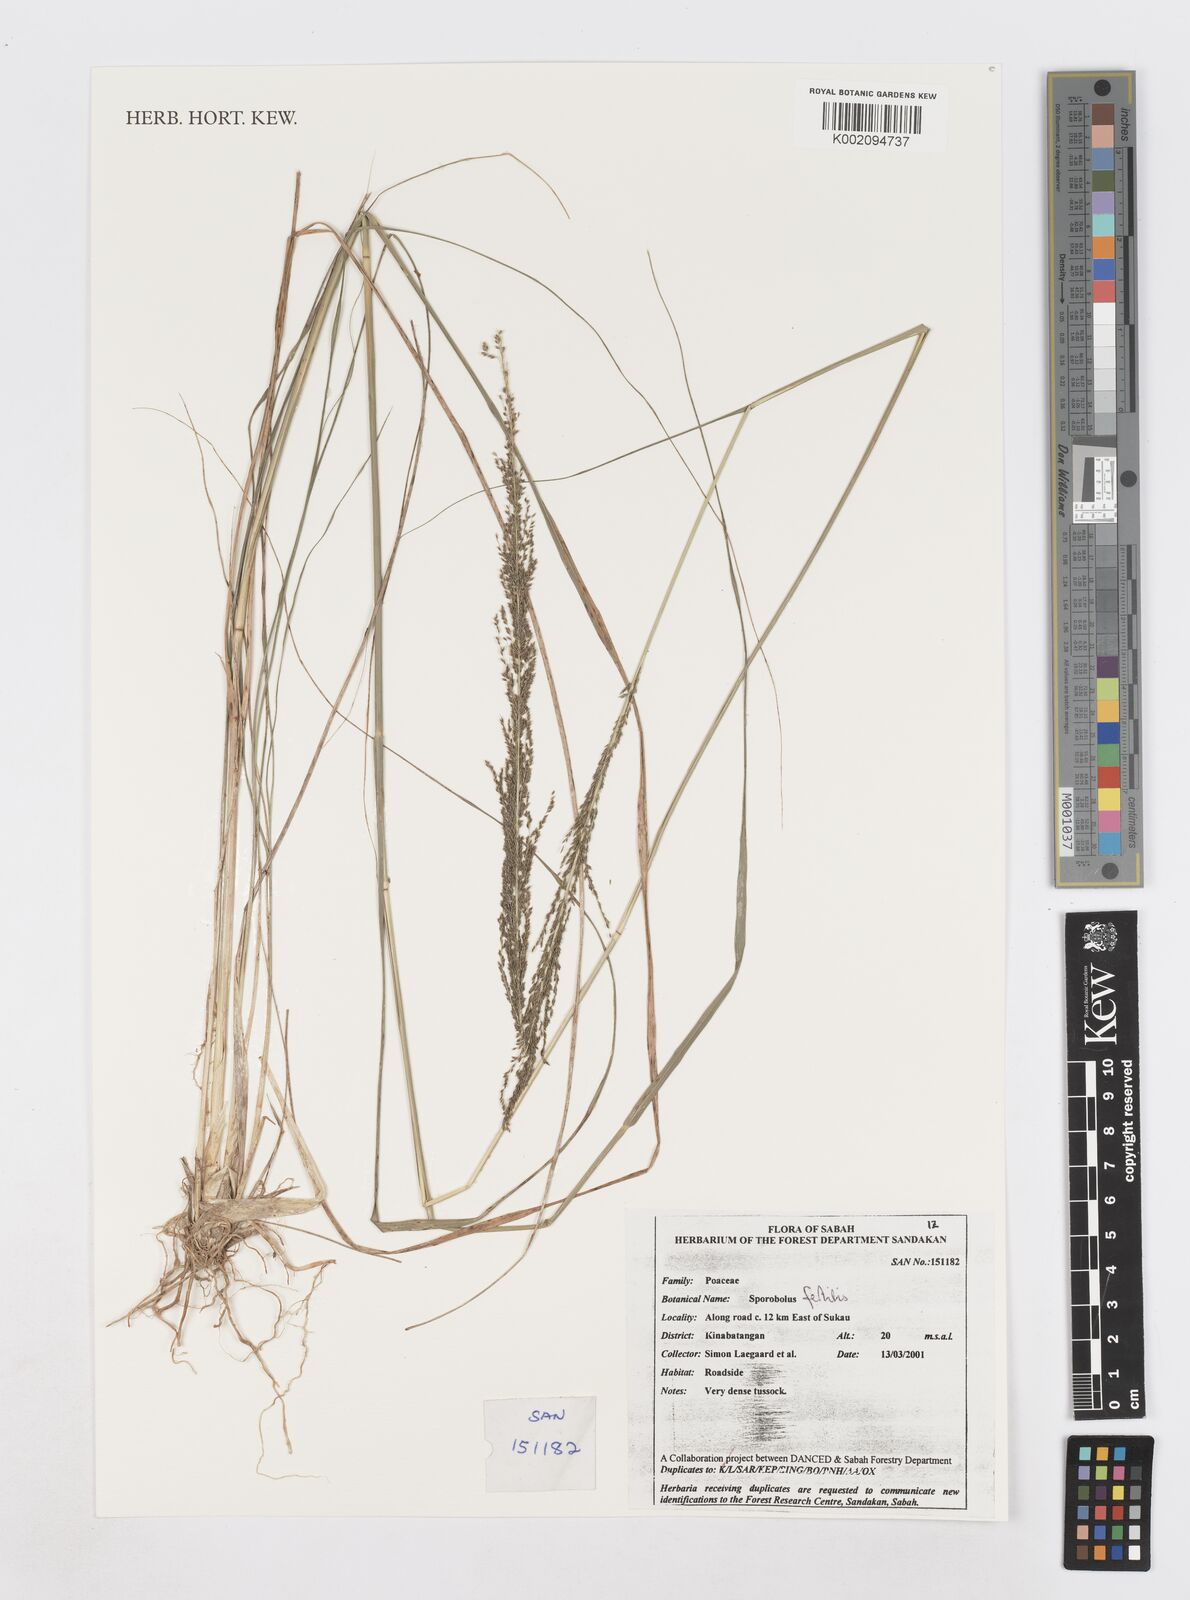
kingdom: Plantae
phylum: Tracheophyta
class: Liliopsida
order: Poales
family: Poaceae
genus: Sporobolus
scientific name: Sporobolus fertilis
